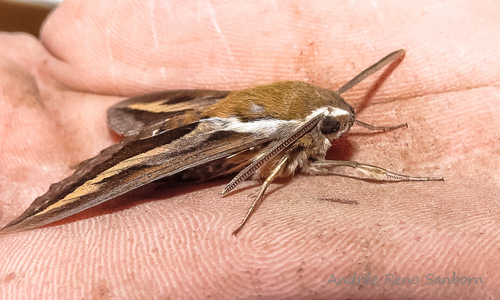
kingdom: Animalia
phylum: Arthropoda
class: Insecta
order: Lepidoptera
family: Sphingidae
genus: Hyles
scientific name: Hyles gallii
